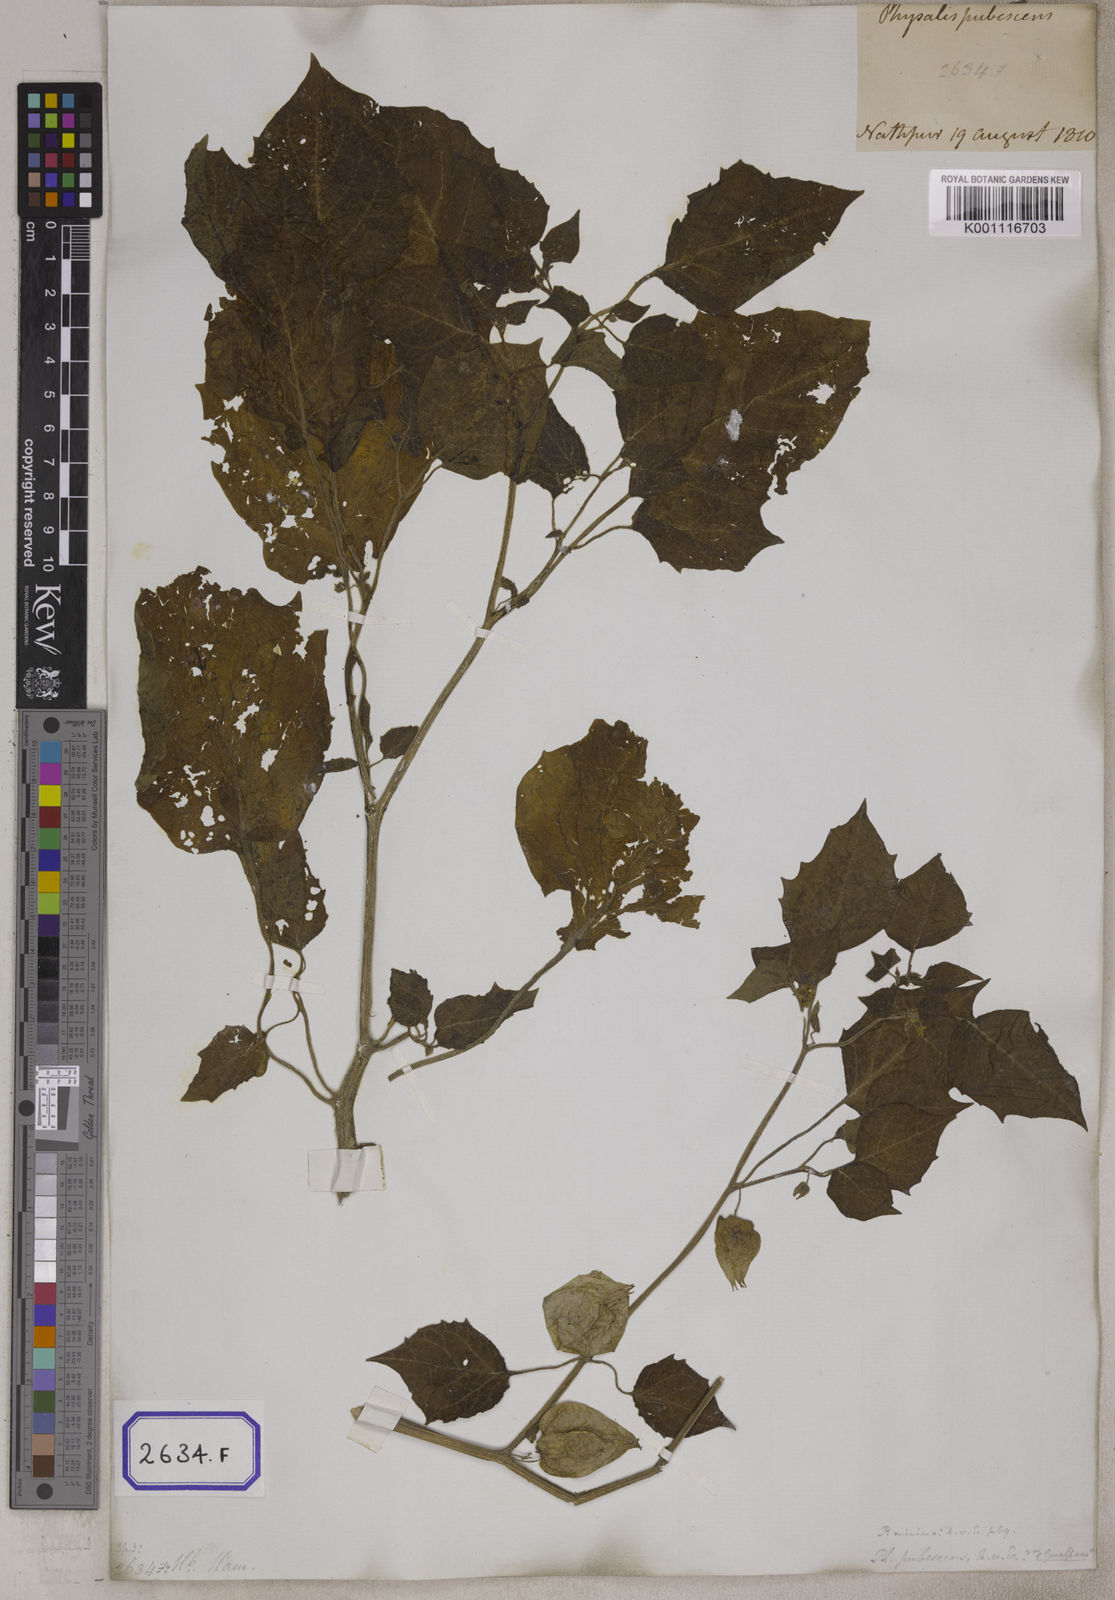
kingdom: Plantae
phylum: Tracheophyta
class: Magnoliopsida
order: Solanales
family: Solanaceae
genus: Physalis
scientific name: Physalis peruviana
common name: Cape-gooseberry
